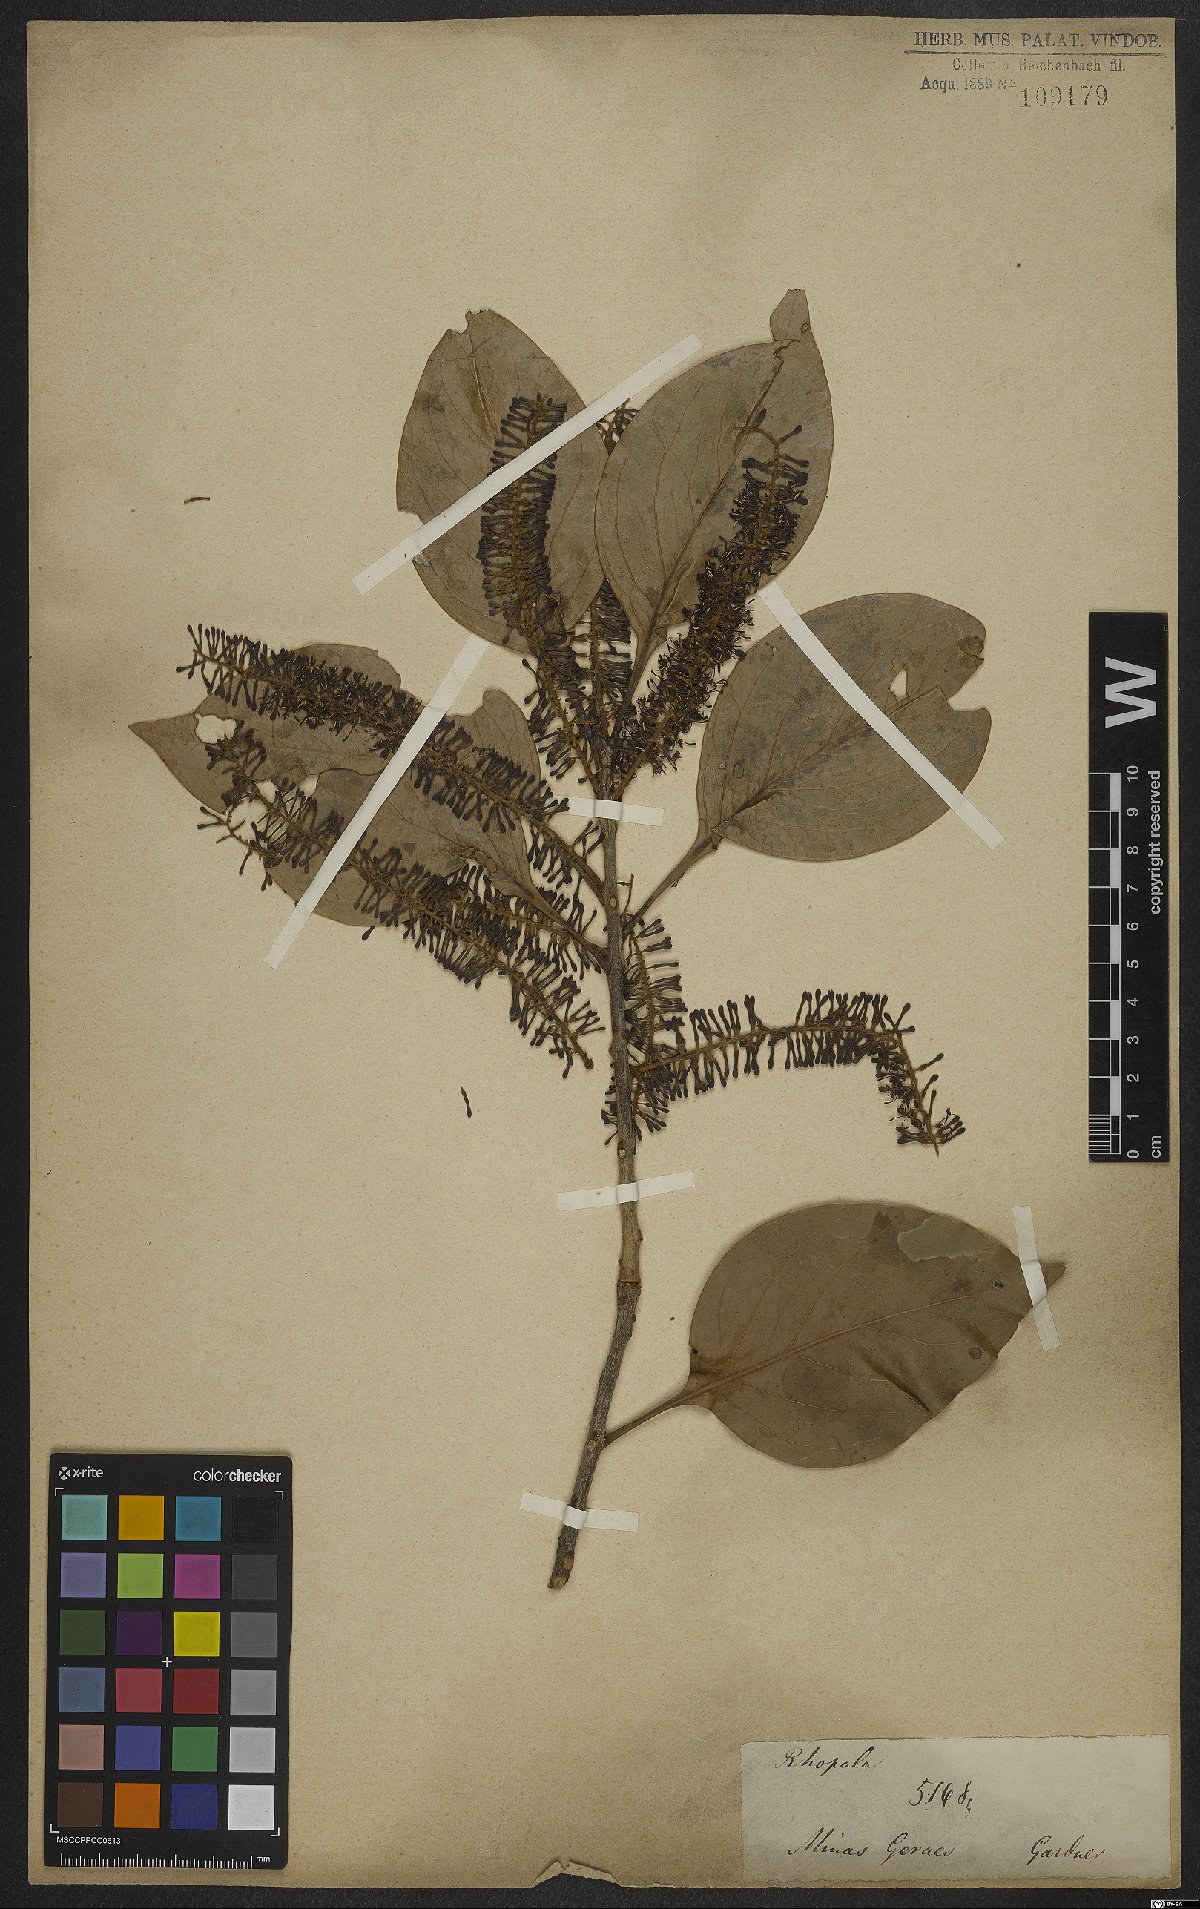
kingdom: Plantae
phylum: Tracheophyta
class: Magnoliopsida
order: Proteales
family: Proteaceae
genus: Roupala
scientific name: Roupala montana
